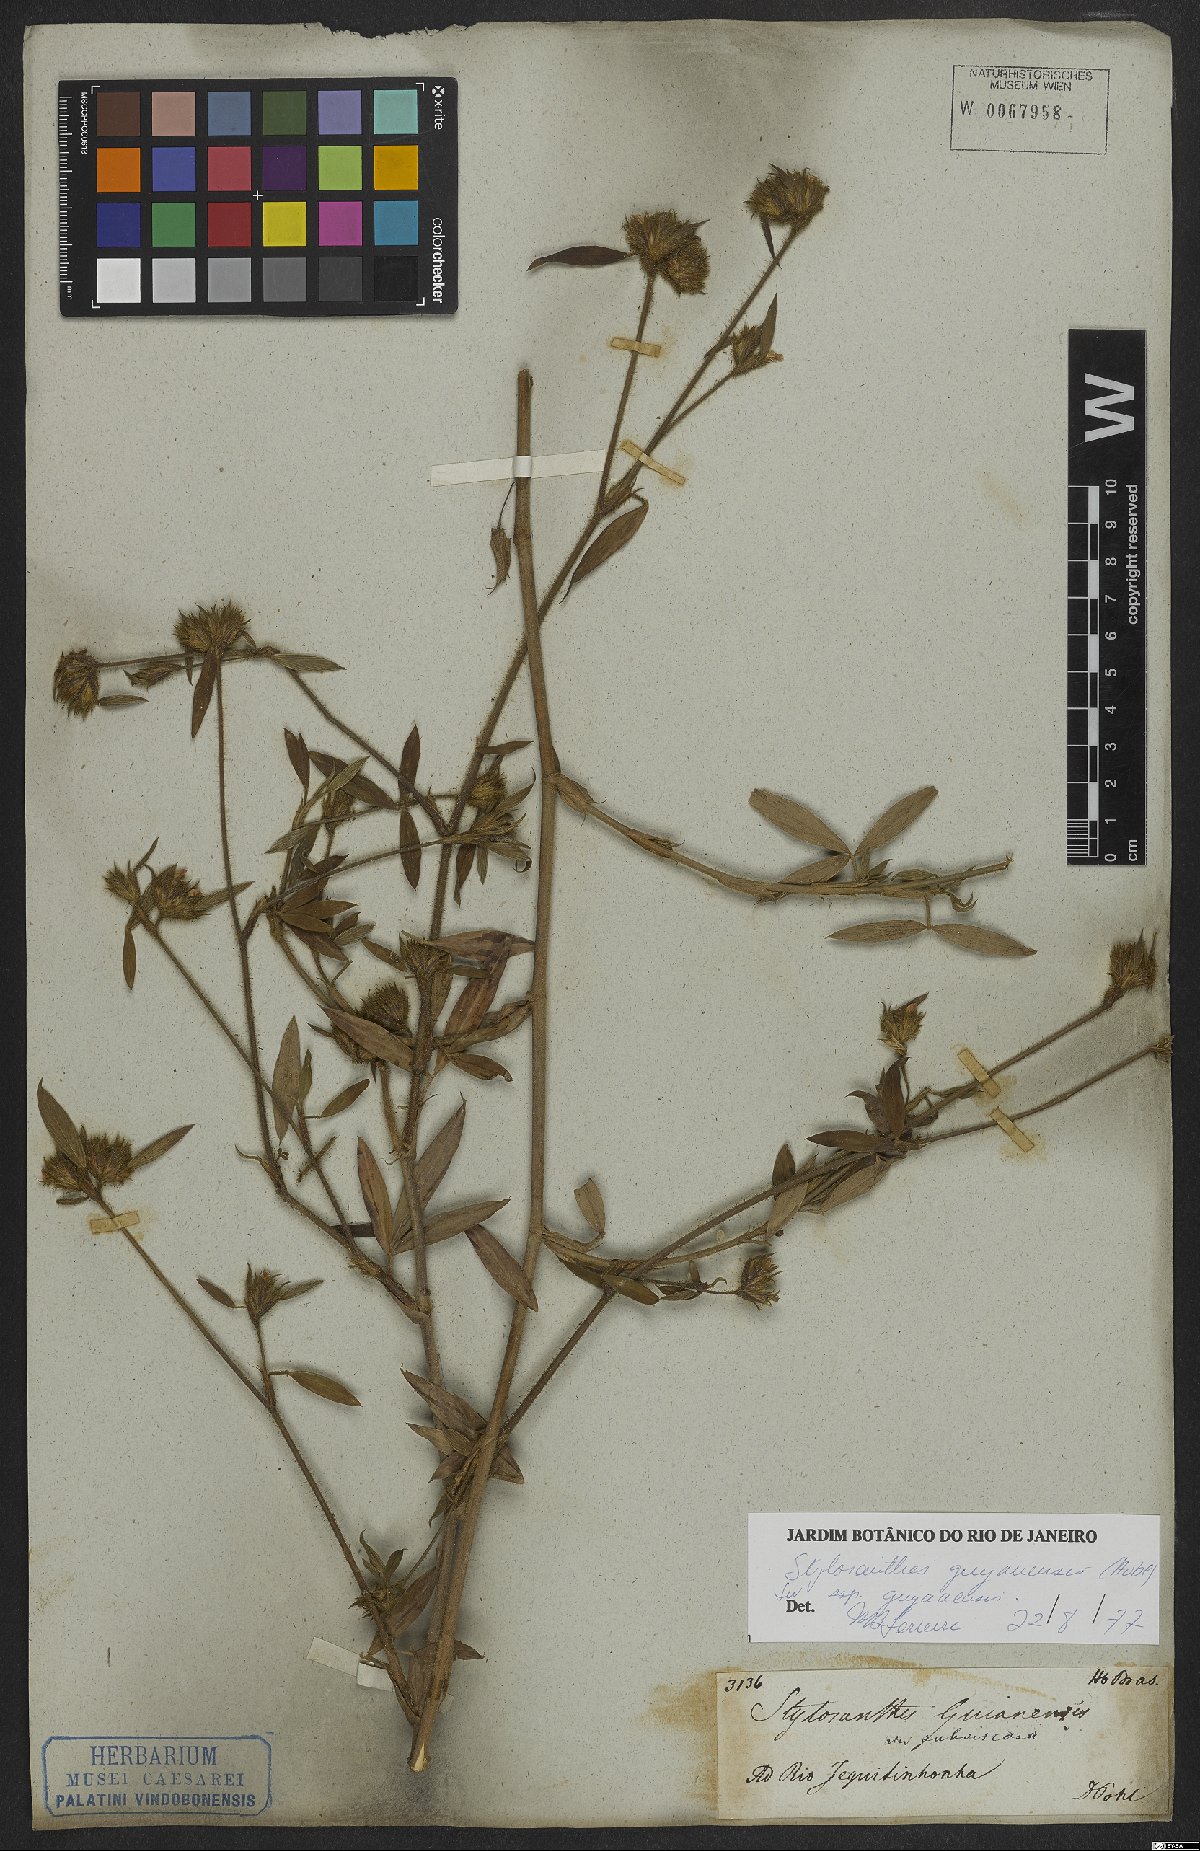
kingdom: Plantae
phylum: Tracheophyta
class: Magnoliopsida
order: Fabales
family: Fabaceae
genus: Stylosanthes
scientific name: Stylosanthes guianensis
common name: Pencil flower
